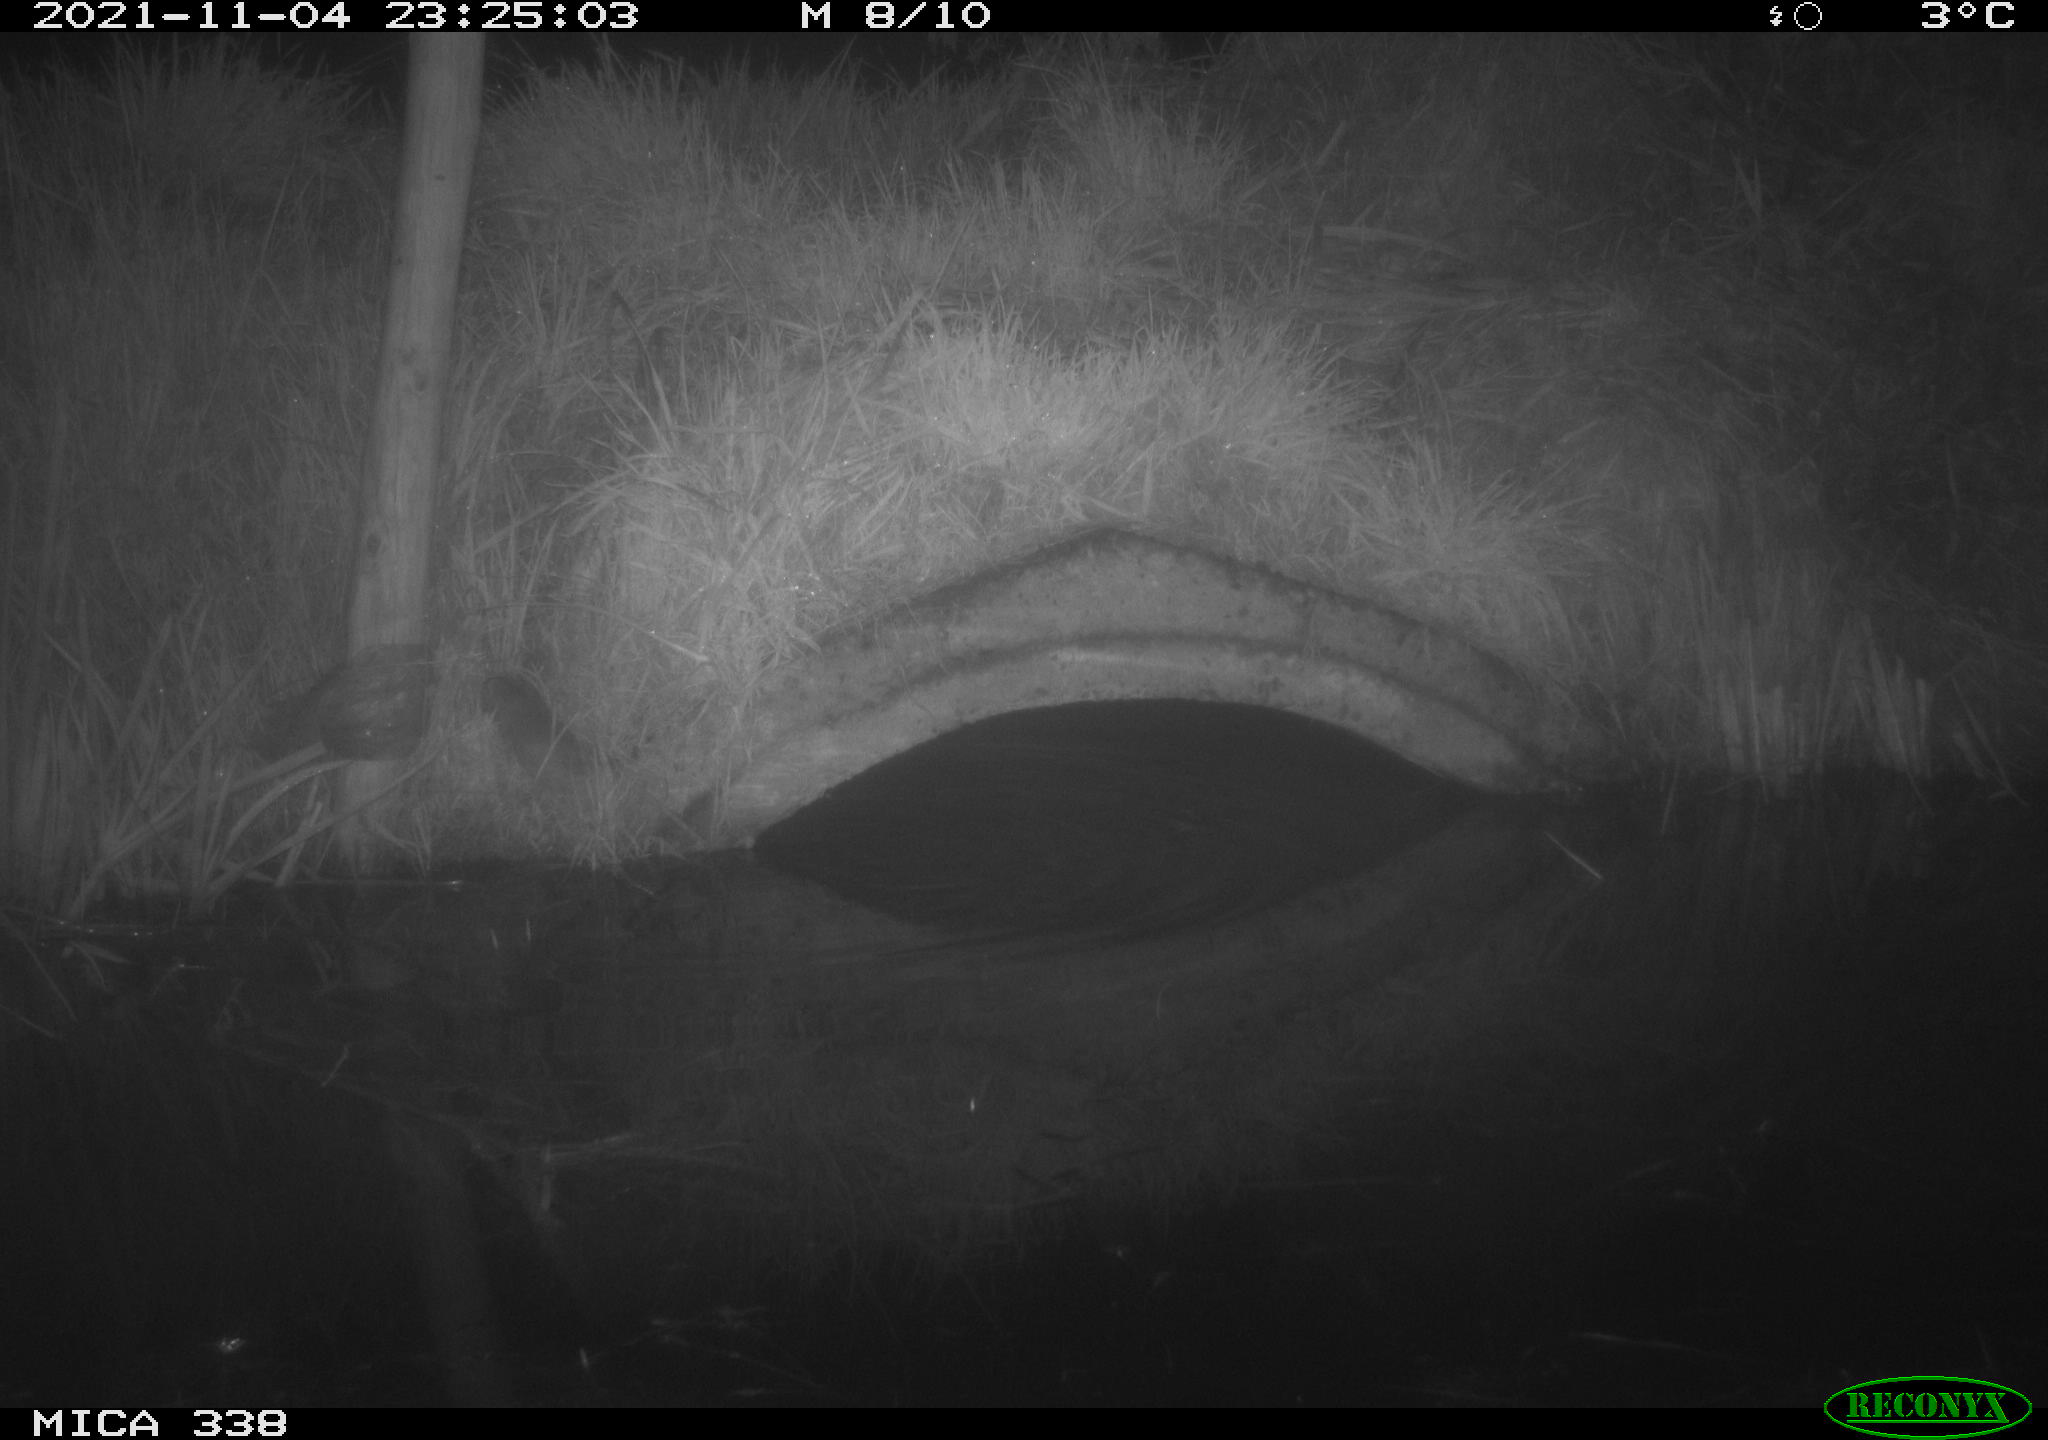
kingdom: Animalia
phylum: Chordata
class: Mammalia
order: Rodentia
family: Muridae
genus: Rattus
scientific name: Rattus norvegicus
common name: Brown rat
